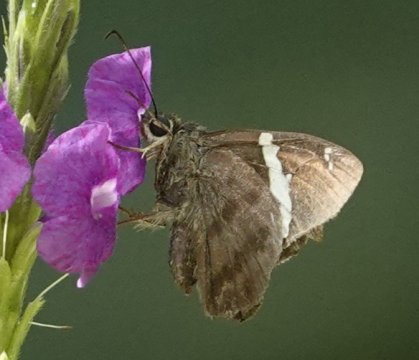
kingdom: Animalia
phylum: Arthropoda
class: Insecta
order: Lepidoptera
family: Hesperiidae
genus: Pompeius
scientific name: Pompeius pompeius
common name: Pompeius Skipper
